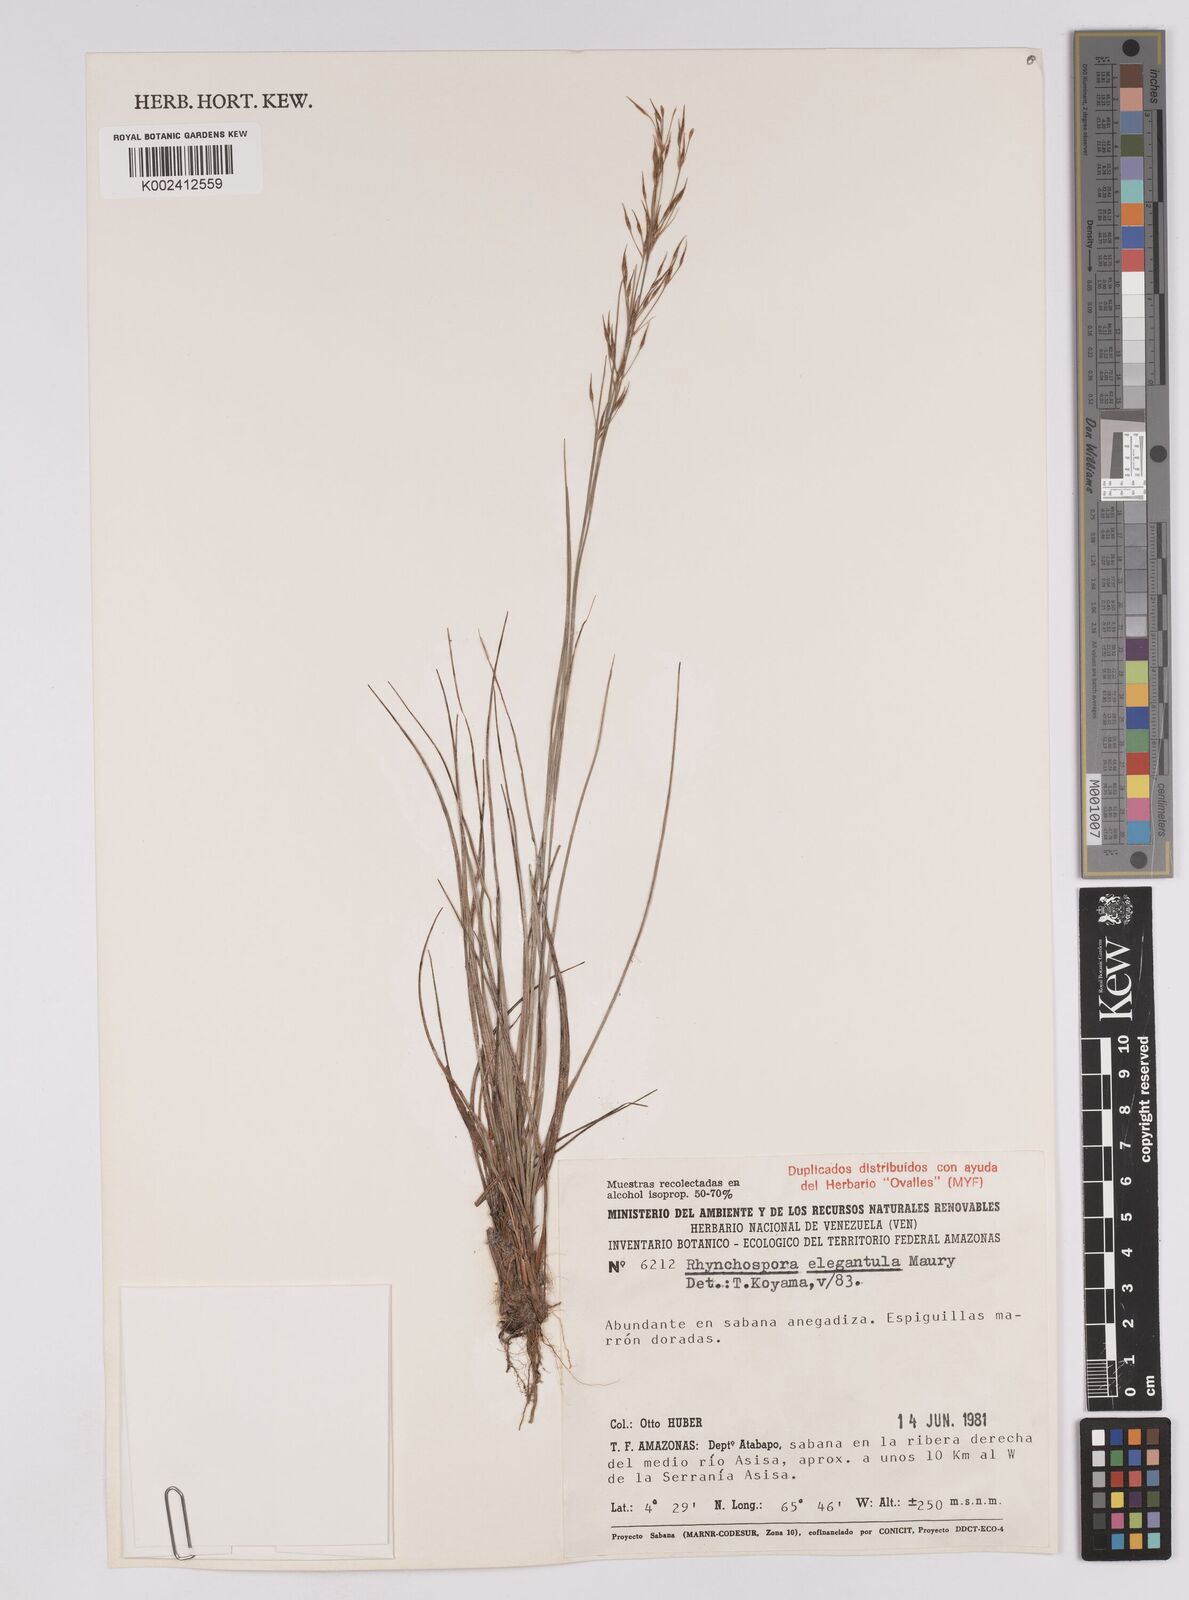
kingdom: Plantae
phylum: Tracheophyta
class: Liliopsida
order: Poales
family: Cyperaceae
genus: Rhynchospora
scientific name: Rhynchospora elegantula
